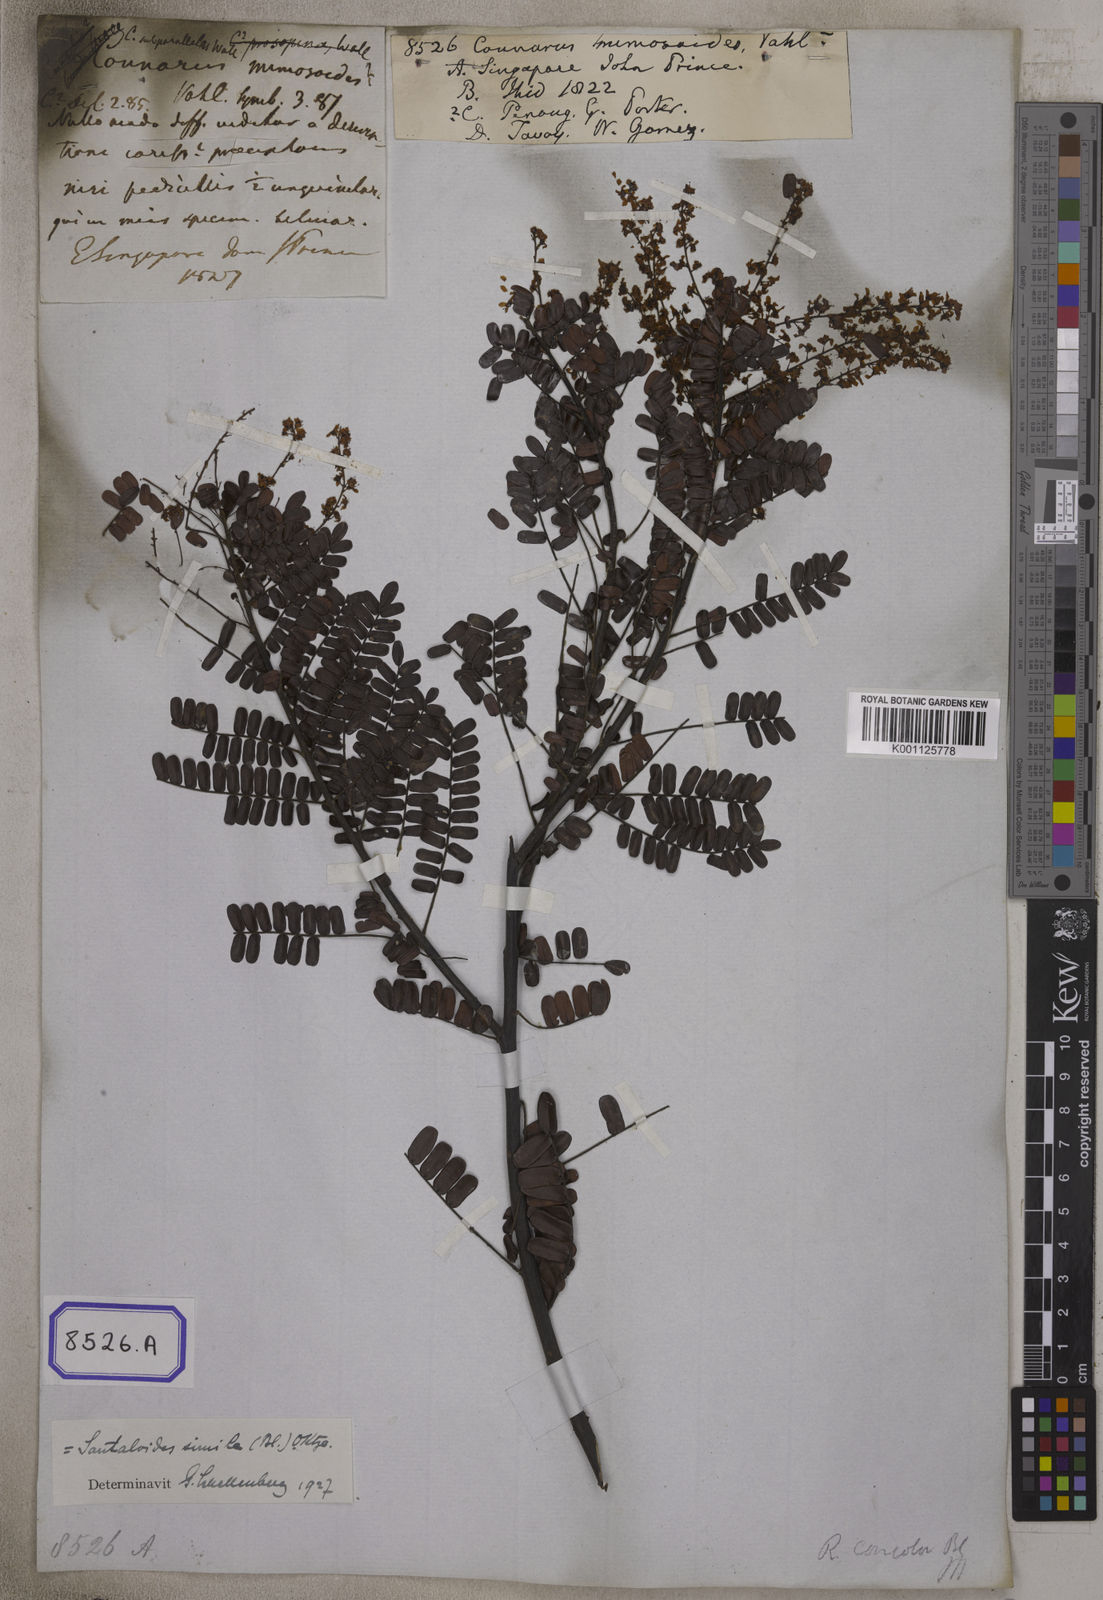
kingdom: Plantae
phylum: Tracheophyta
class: Magnoliopsida
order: Oxalidales
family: Connaraceae
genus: Connarus
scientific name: Connarus
